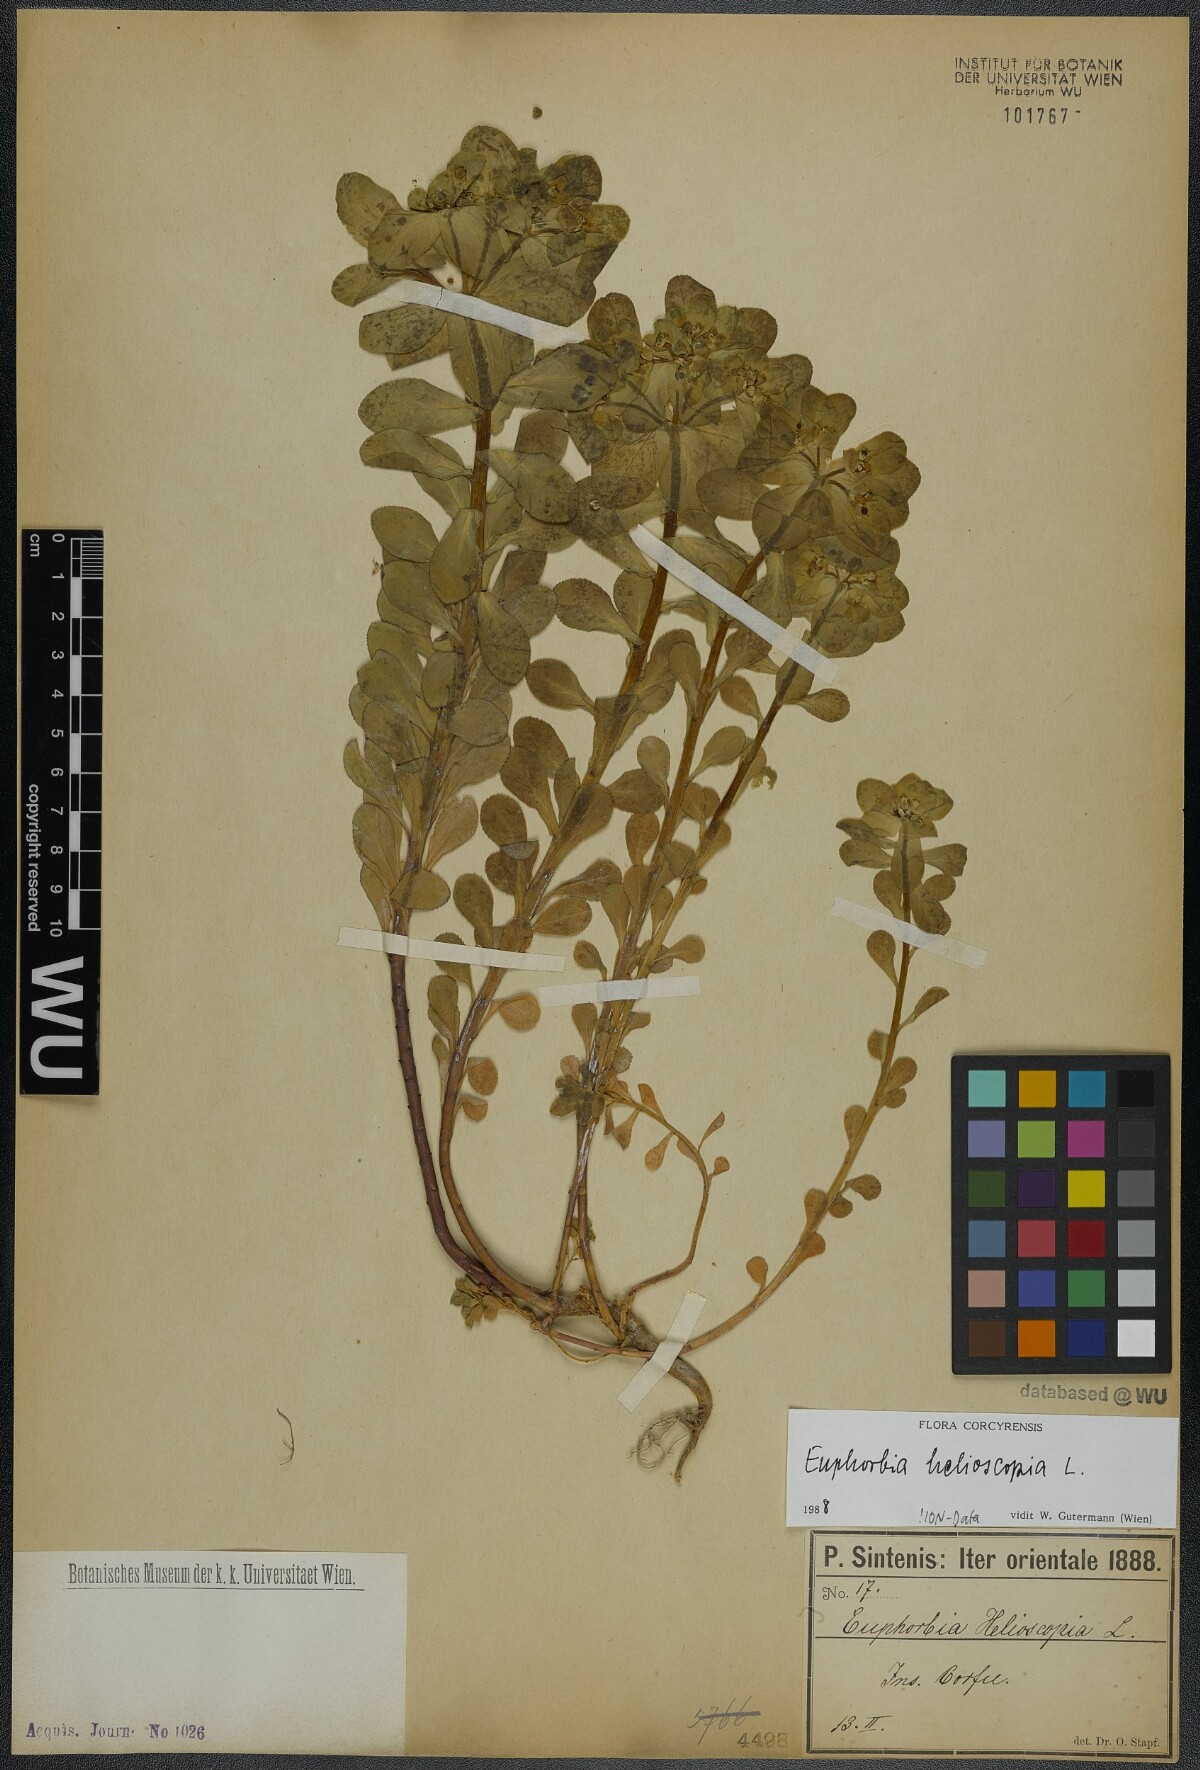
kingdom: Plantae
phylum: Tracheophyta
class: Magnoliopsida
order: Malpighiales
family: Euphorbiaceae
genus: Euphorbia
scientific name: Euphorbia helioscopia
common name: Sun spurge
